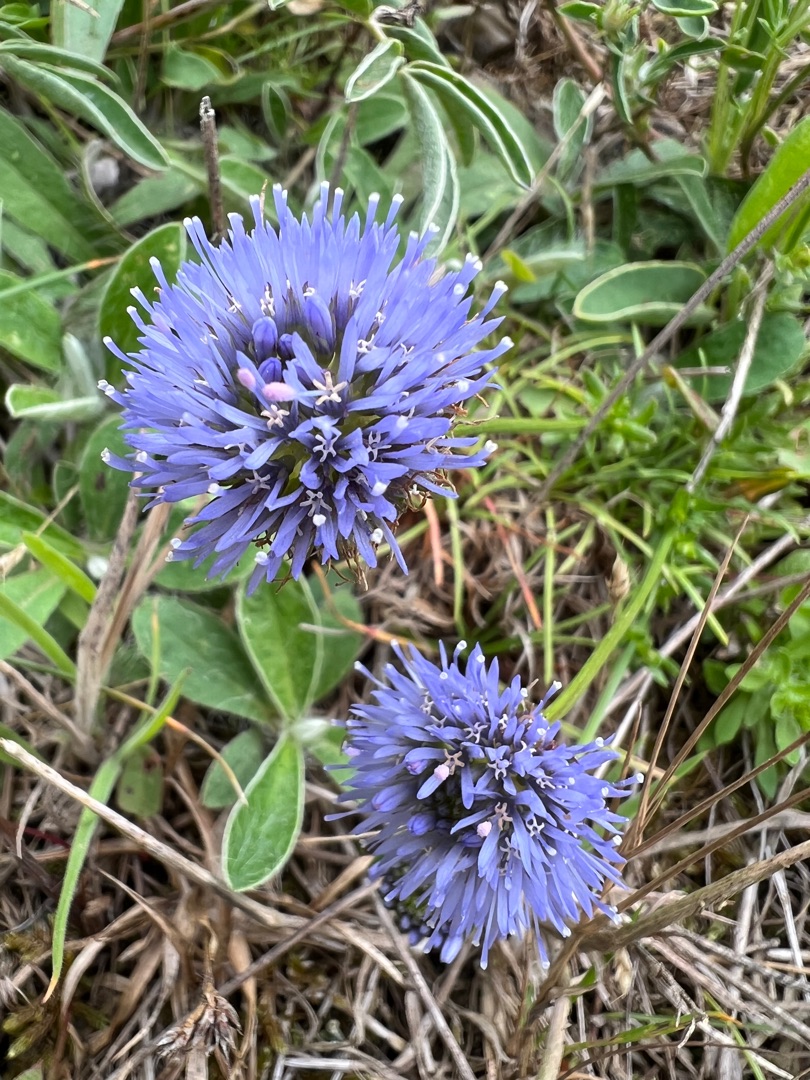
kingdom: Plantae
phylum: Tracheophyta
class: Magnoliopsida
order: Asterales
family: Campanulaceae
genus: Jasione
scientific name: Jasione montana
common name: Blåmunke
